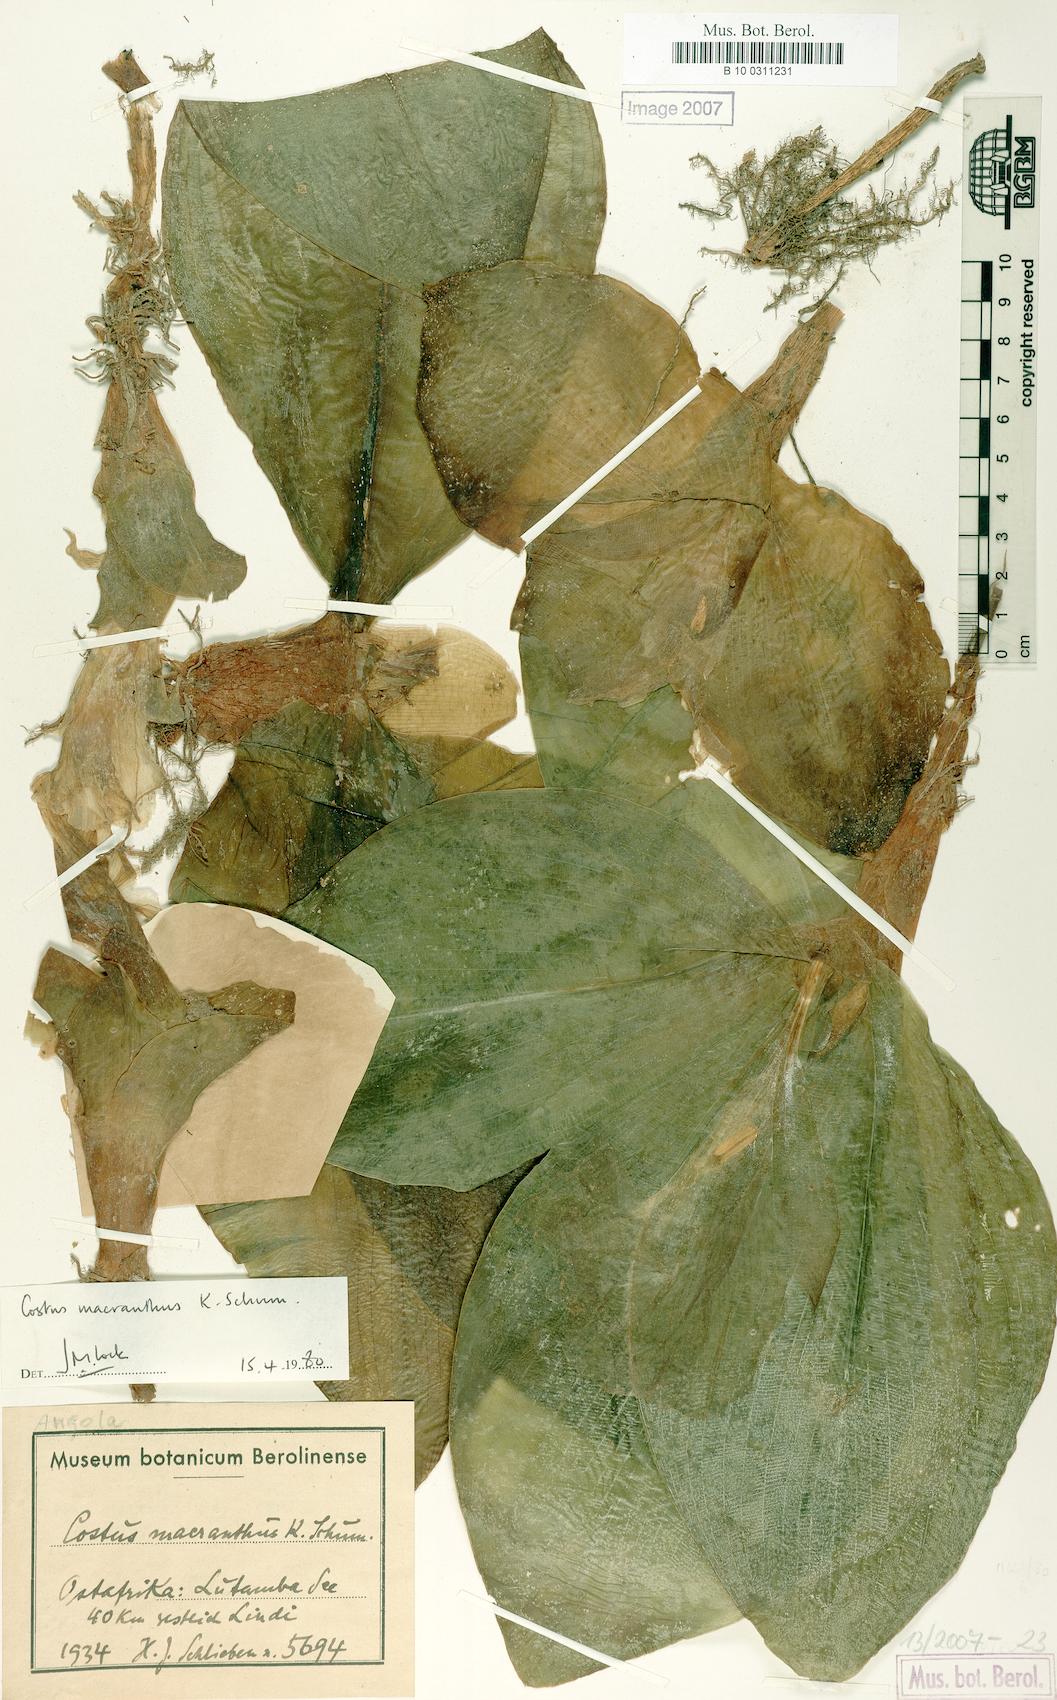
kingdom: Plantae
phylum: Tracheophyta
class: Liliopsida
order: Zingiberales
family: Costaceae
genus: Costus
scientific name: Costus macranthus
